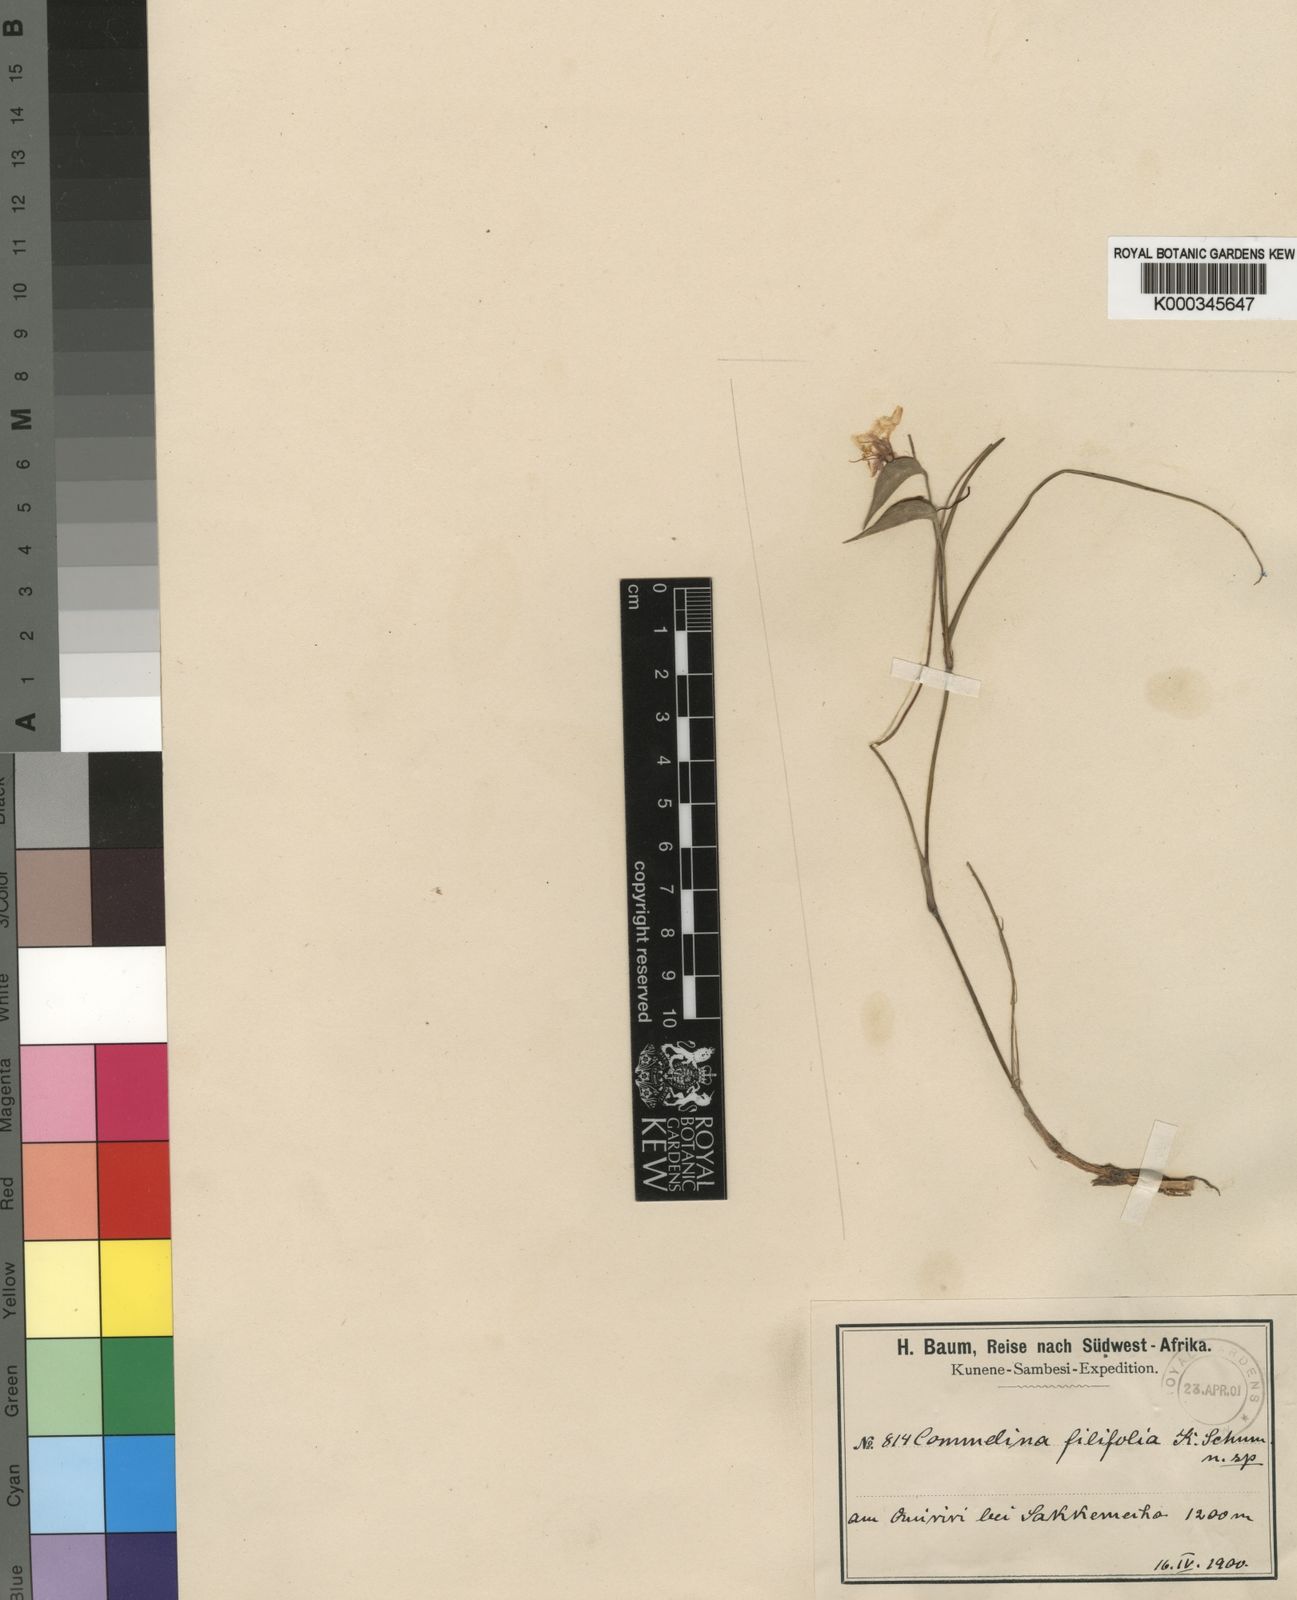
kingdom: Plantae
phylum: Tracheophyta
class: Liliopsida
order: Commelinales
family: Commelinaceae
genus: Commelina
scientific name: Commelina welwitschii
